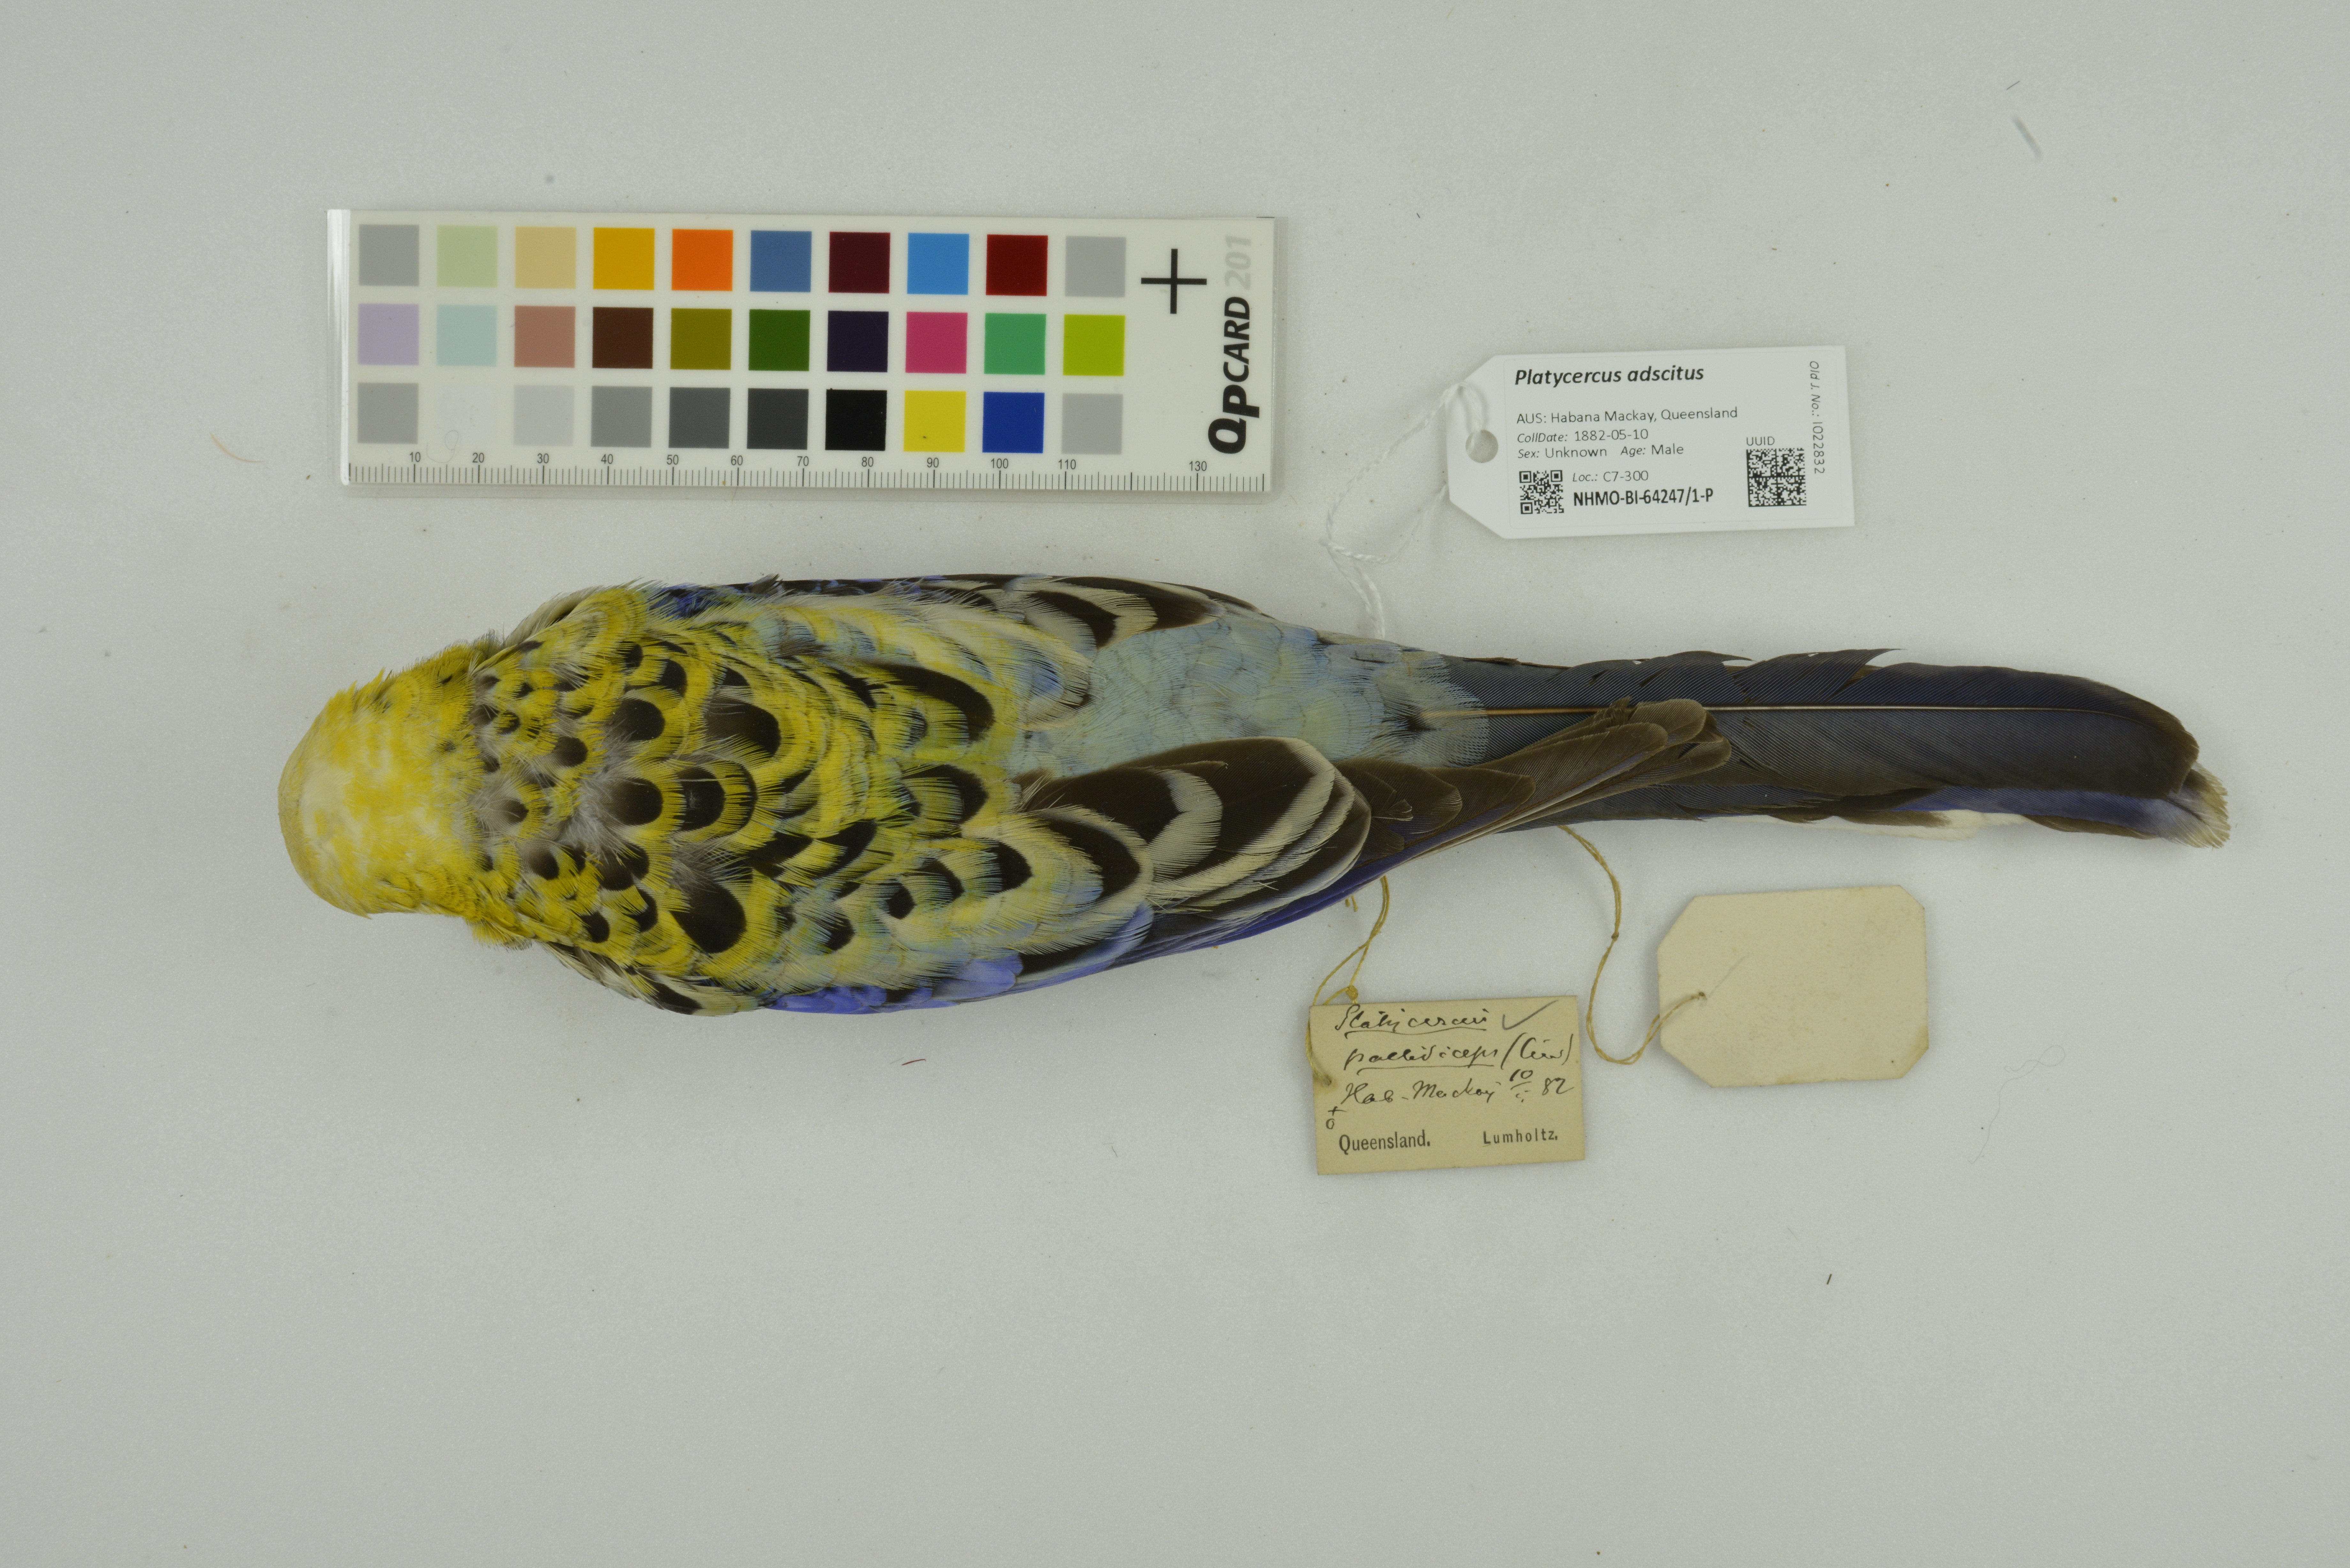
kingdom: Animalia
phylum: Chordata
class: Aves
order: Psittaciformes
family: Psittacidae
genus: Platycercus
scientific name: Platycercus adscitus
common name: Pale-headed rosella
